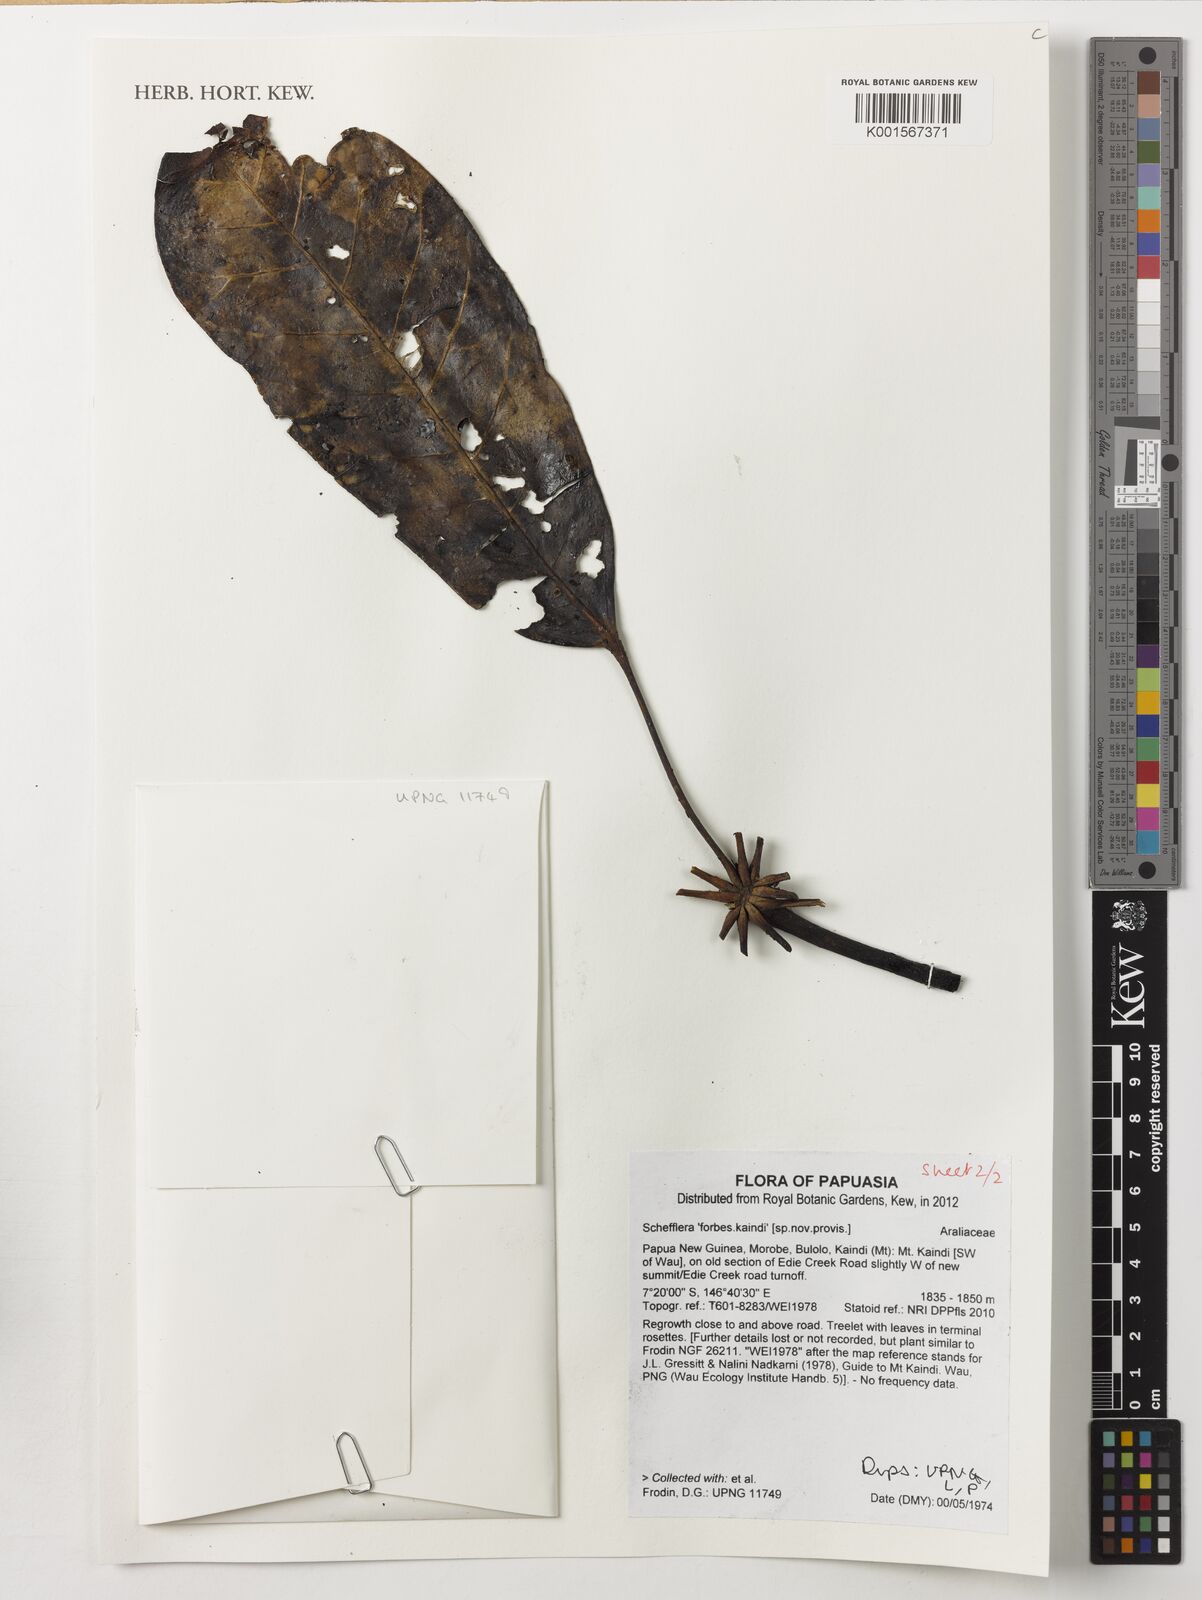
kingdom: Plantae
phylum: Tracheophyta
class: Magnoliopsida
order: Apiales
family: Araliaceae
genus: Schefflera
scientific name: Schefflera
